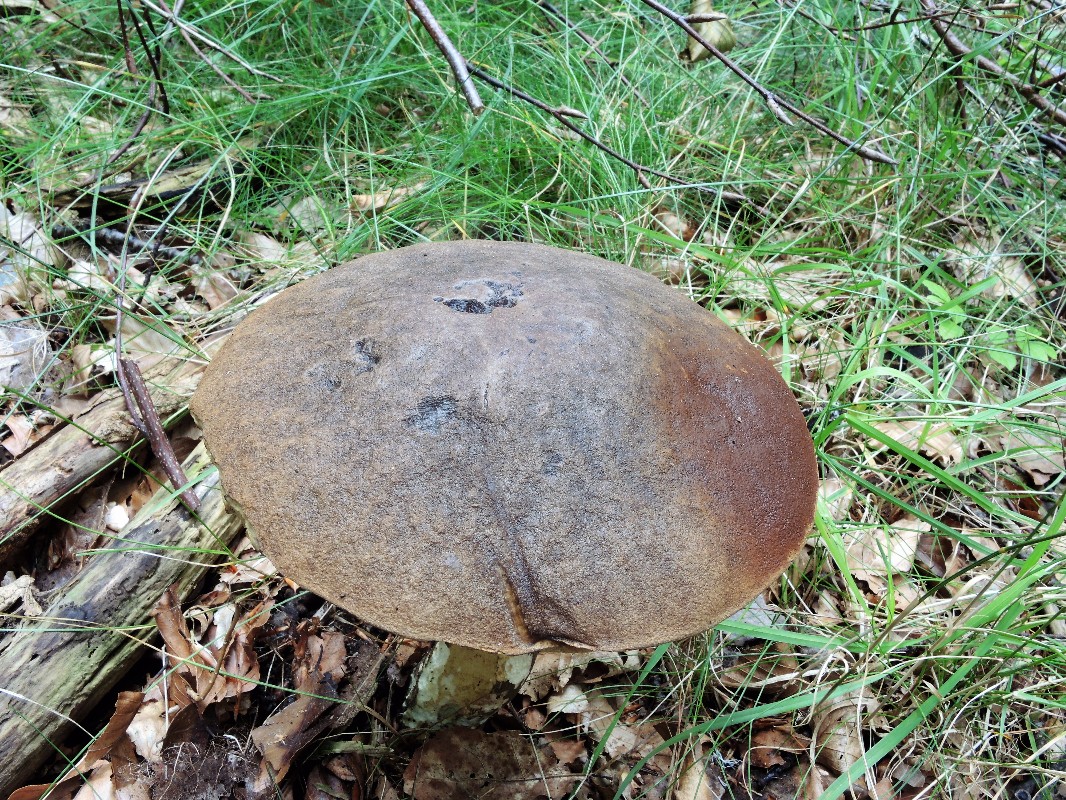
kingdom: Fungi
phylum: Basidiomycota
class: Agaricomycetes
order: Boletales
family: Boletaceae
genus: Leccinum
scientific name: Leccinum duriusculum
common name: poppel-skælrørhat
